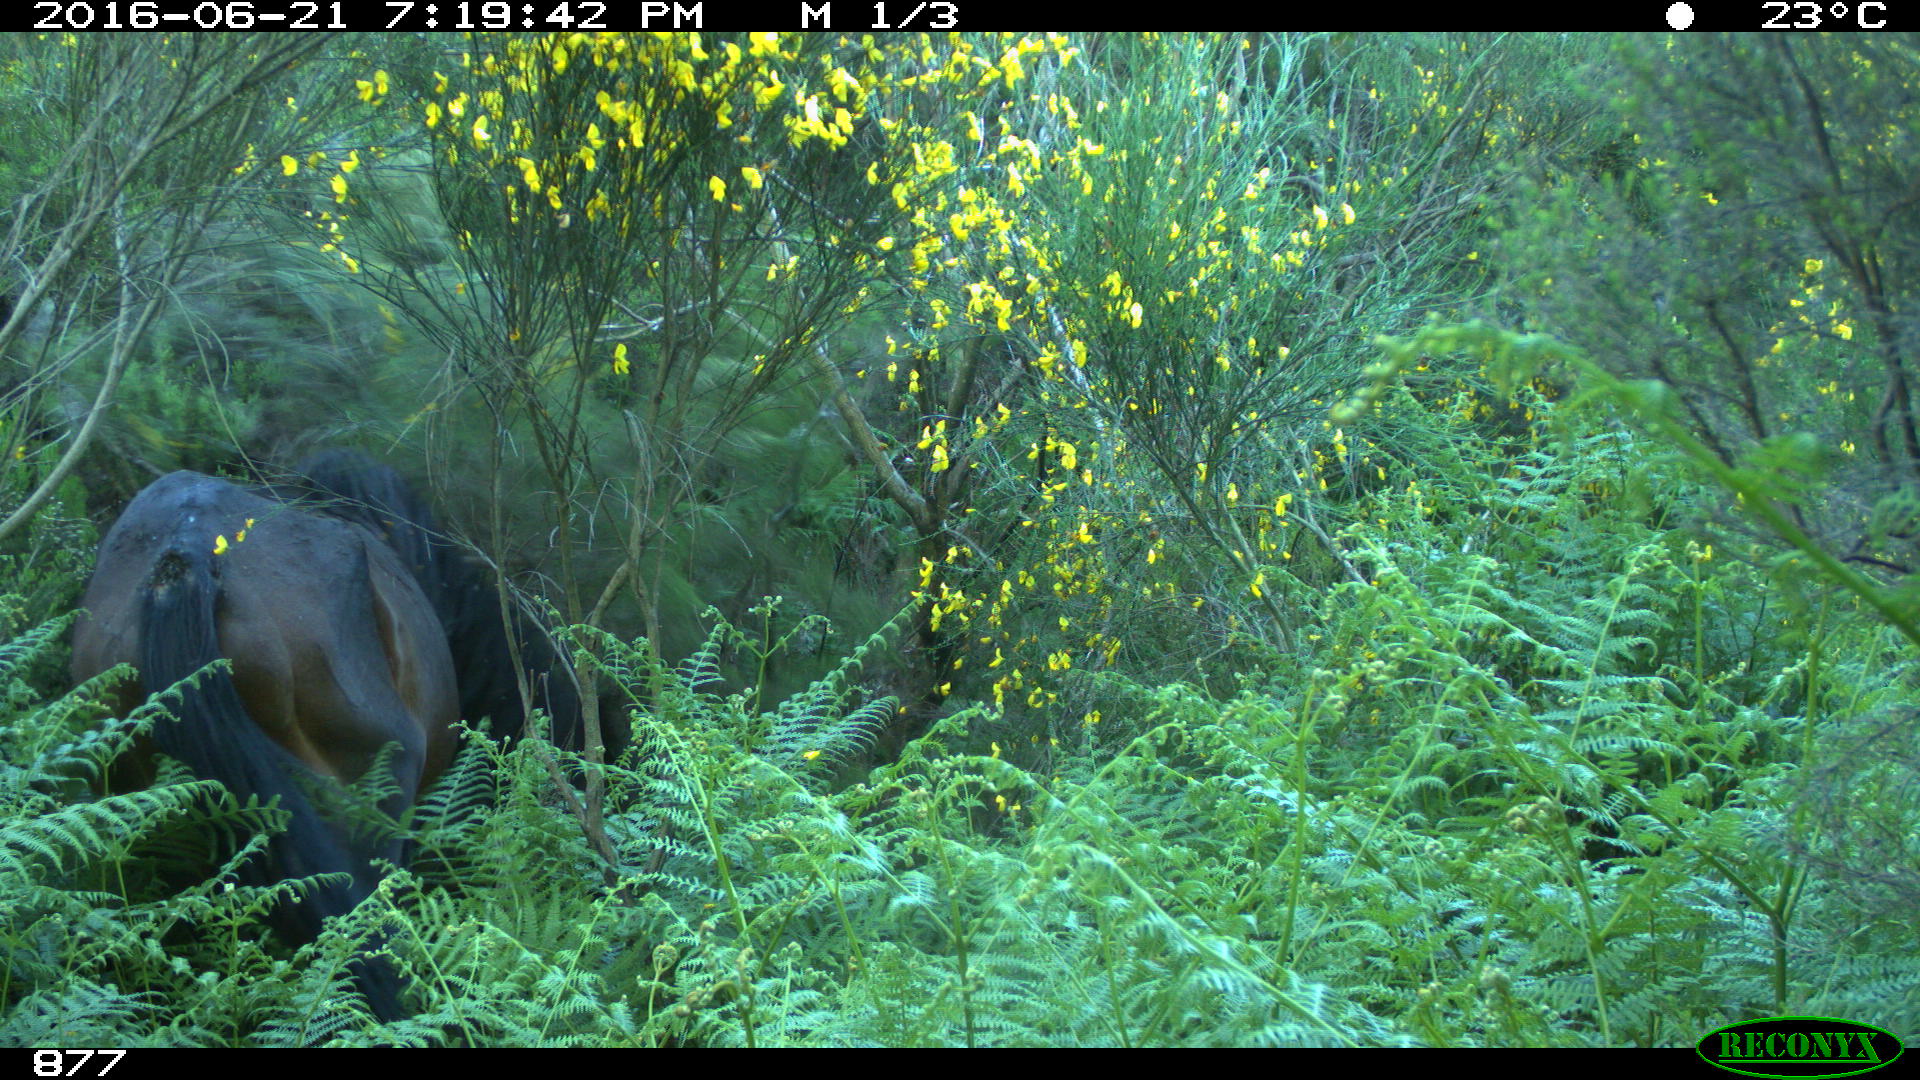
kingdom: Animalia
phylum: Chordata
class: Mammalia
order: Perissodactyla
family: Equidae
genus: Equus
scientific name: Equus caballus
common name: Horse
